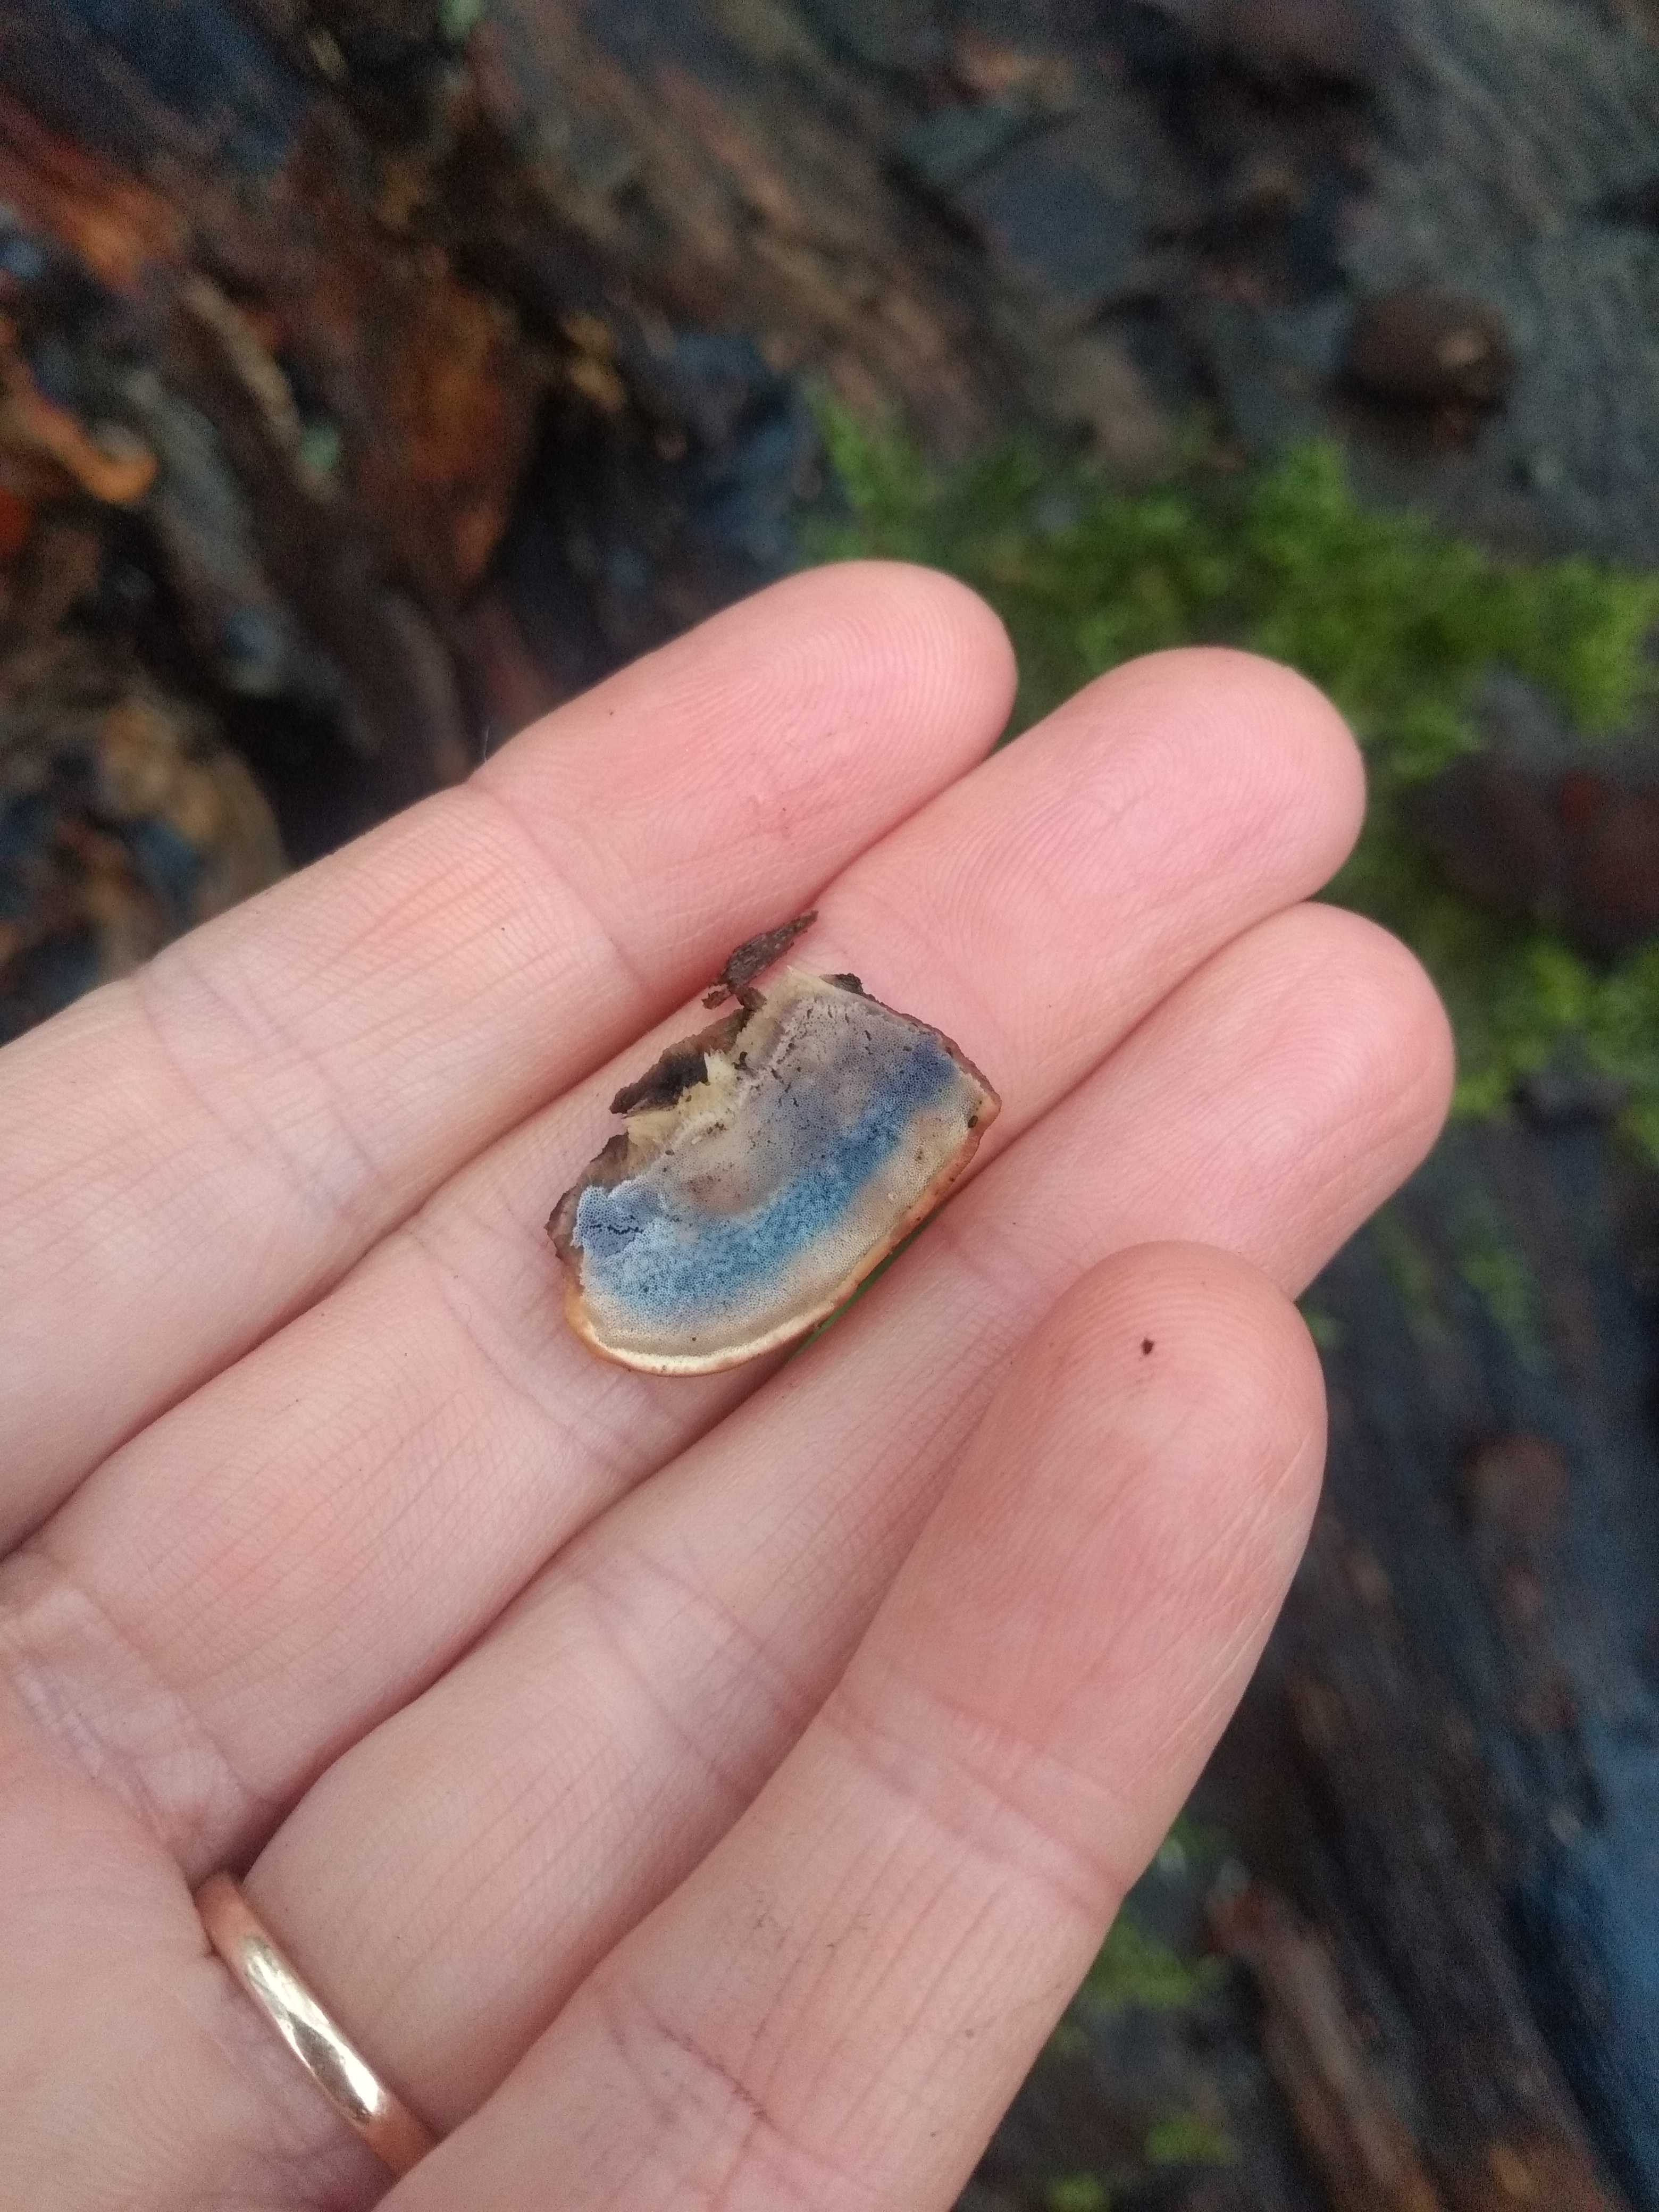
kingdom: Fungi
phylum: Basidiomycota
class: Agaricomycetes
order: Polyporales
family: Incrustoporiaceae
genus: Skeletocutis
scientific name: Skeletocutis nemoralis
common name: stor krystalporesvamp
